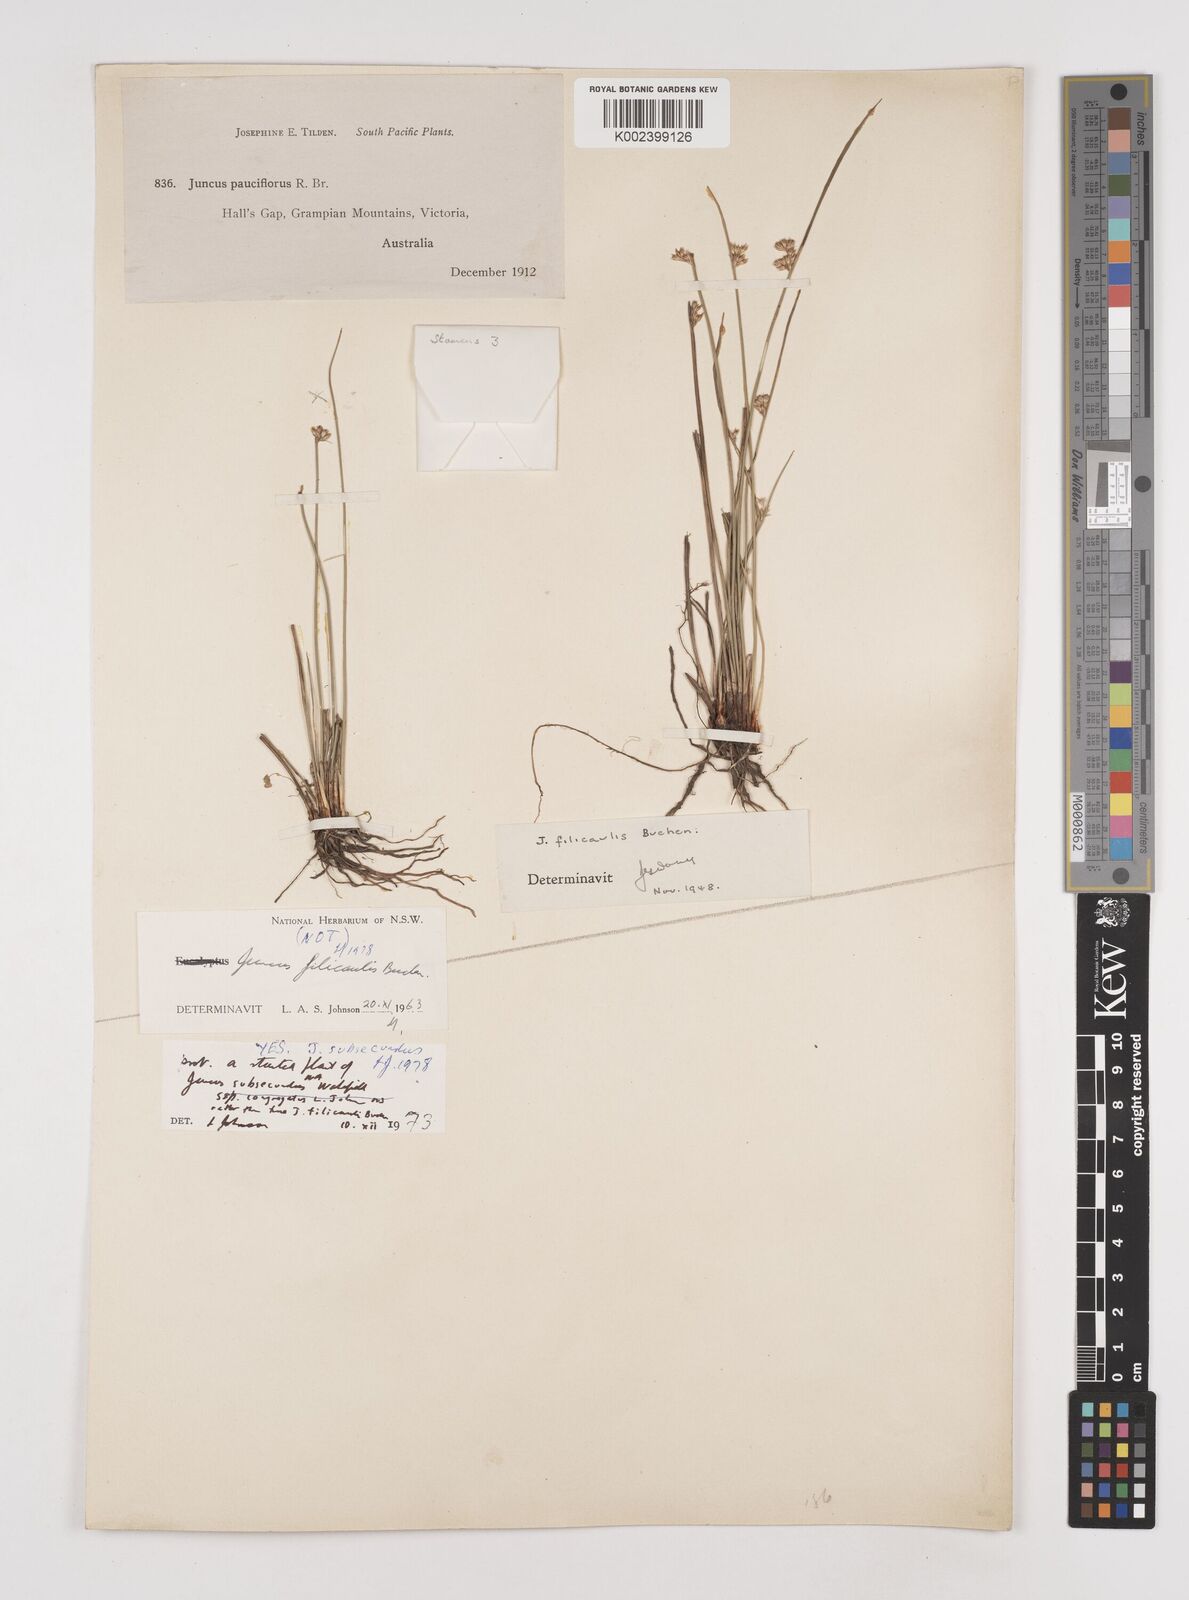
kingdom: Plantae
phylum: Tracheophyta
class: Liliopsida
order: Poales
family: Juncaceae
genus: Juncus
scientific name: Juncus subsecundus
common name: Fingered rush
